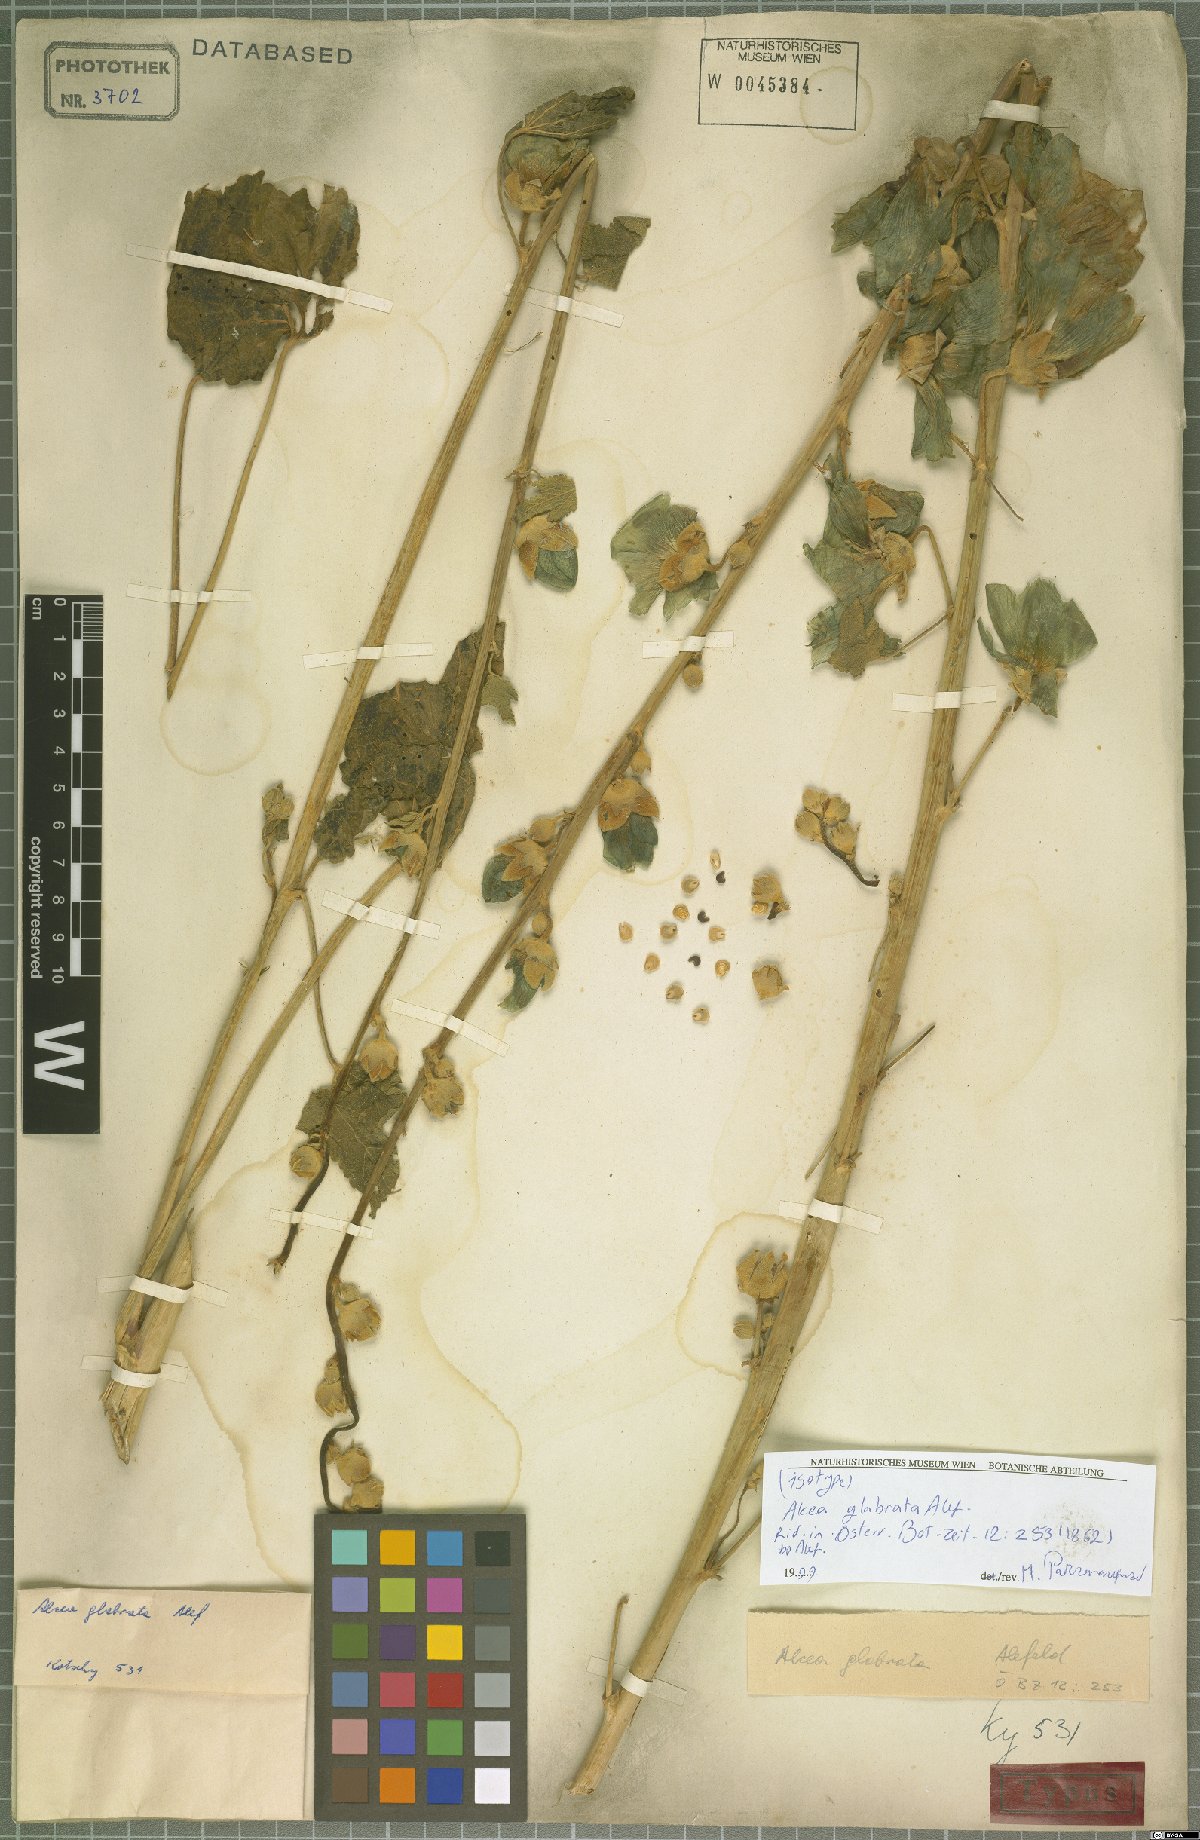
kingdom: Plantae
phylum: Tracheophyta
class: Magnoliopsida
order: Malvales
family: Malvaceae
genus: Alcea
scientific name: Alcea glabrata
